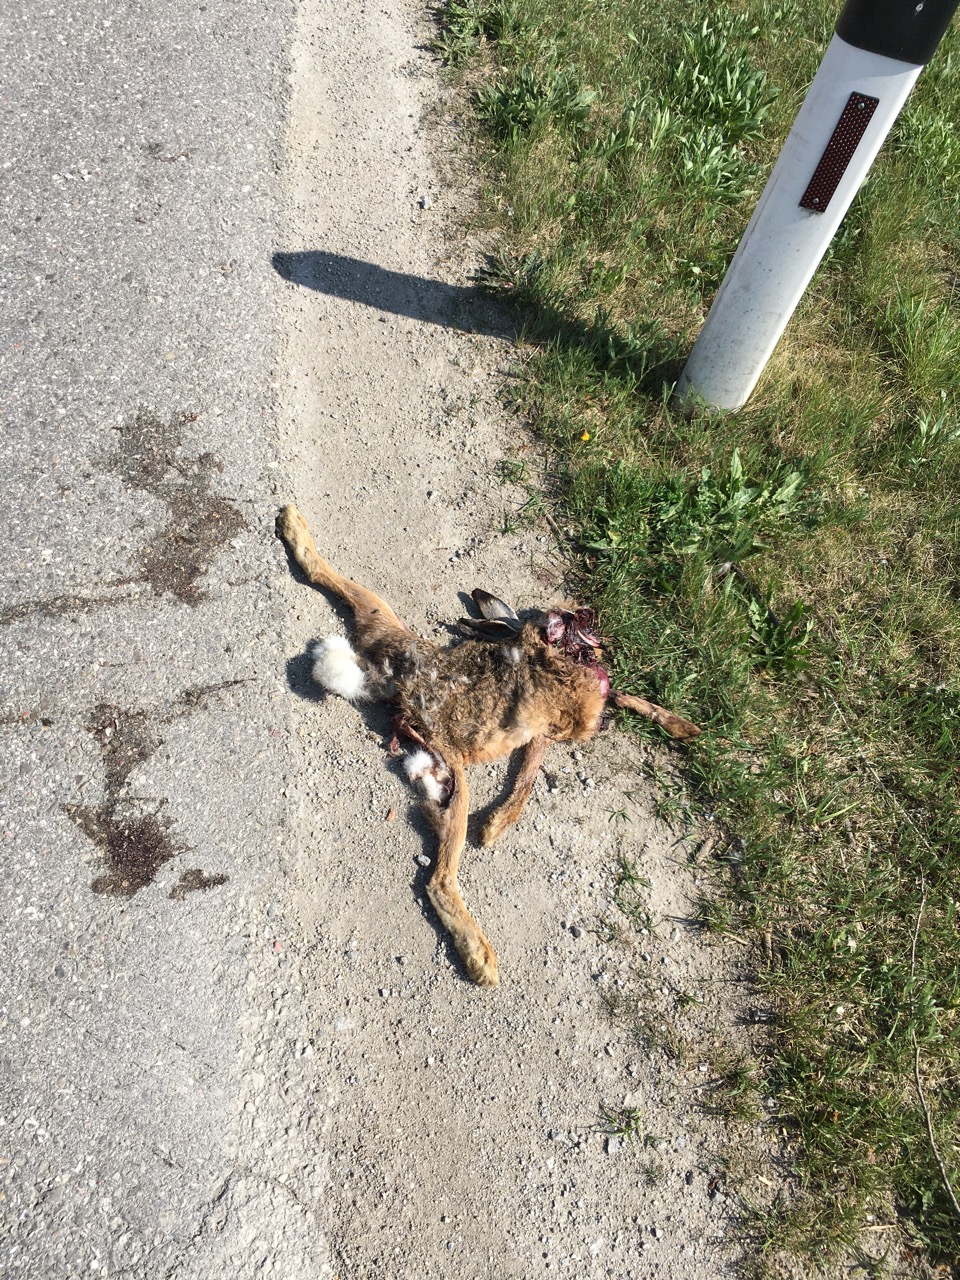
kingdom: Animalia
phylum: Chordata
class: Mammalia
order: Lagomorpha
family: Leporidae
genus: Lepus
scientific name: Lepus europaeus
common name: European hare
